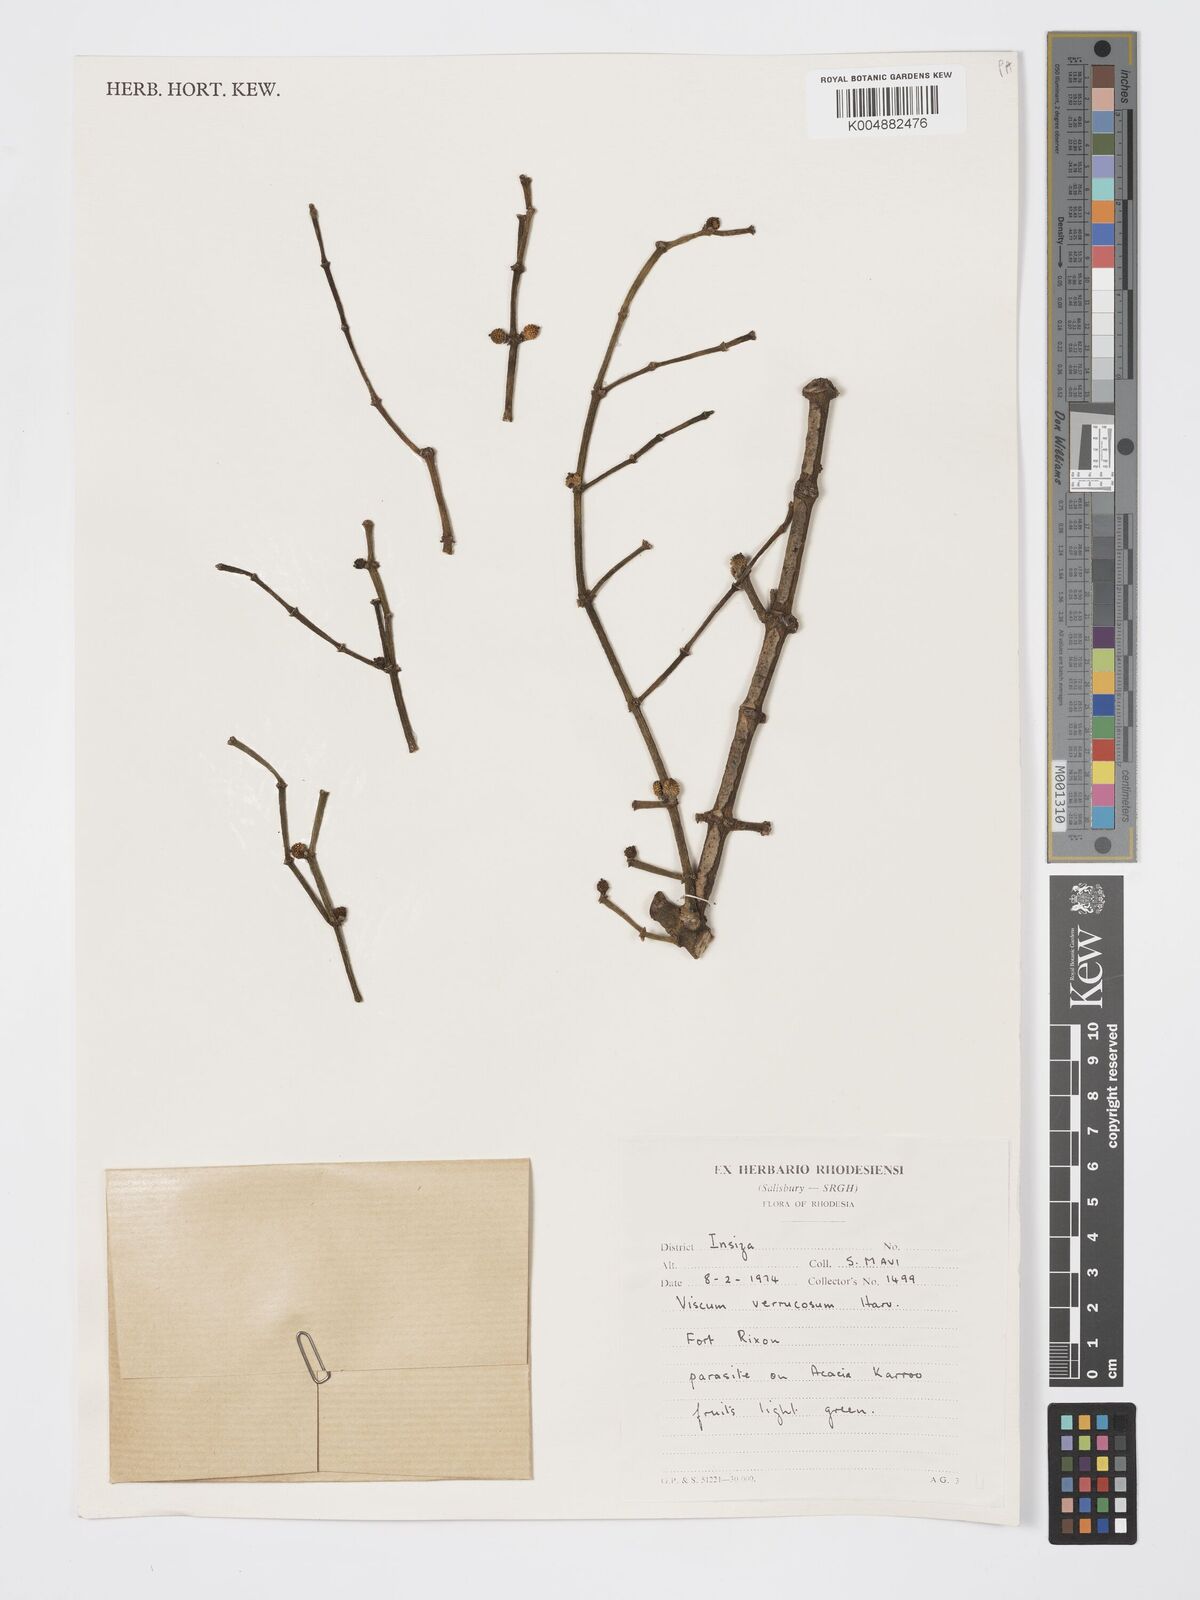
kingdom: Plantae
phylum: Tracheophyta
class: Magnoliopsida
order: Santalales
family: Viscaceae
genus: Viscum
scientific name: Viscum verrucosum
